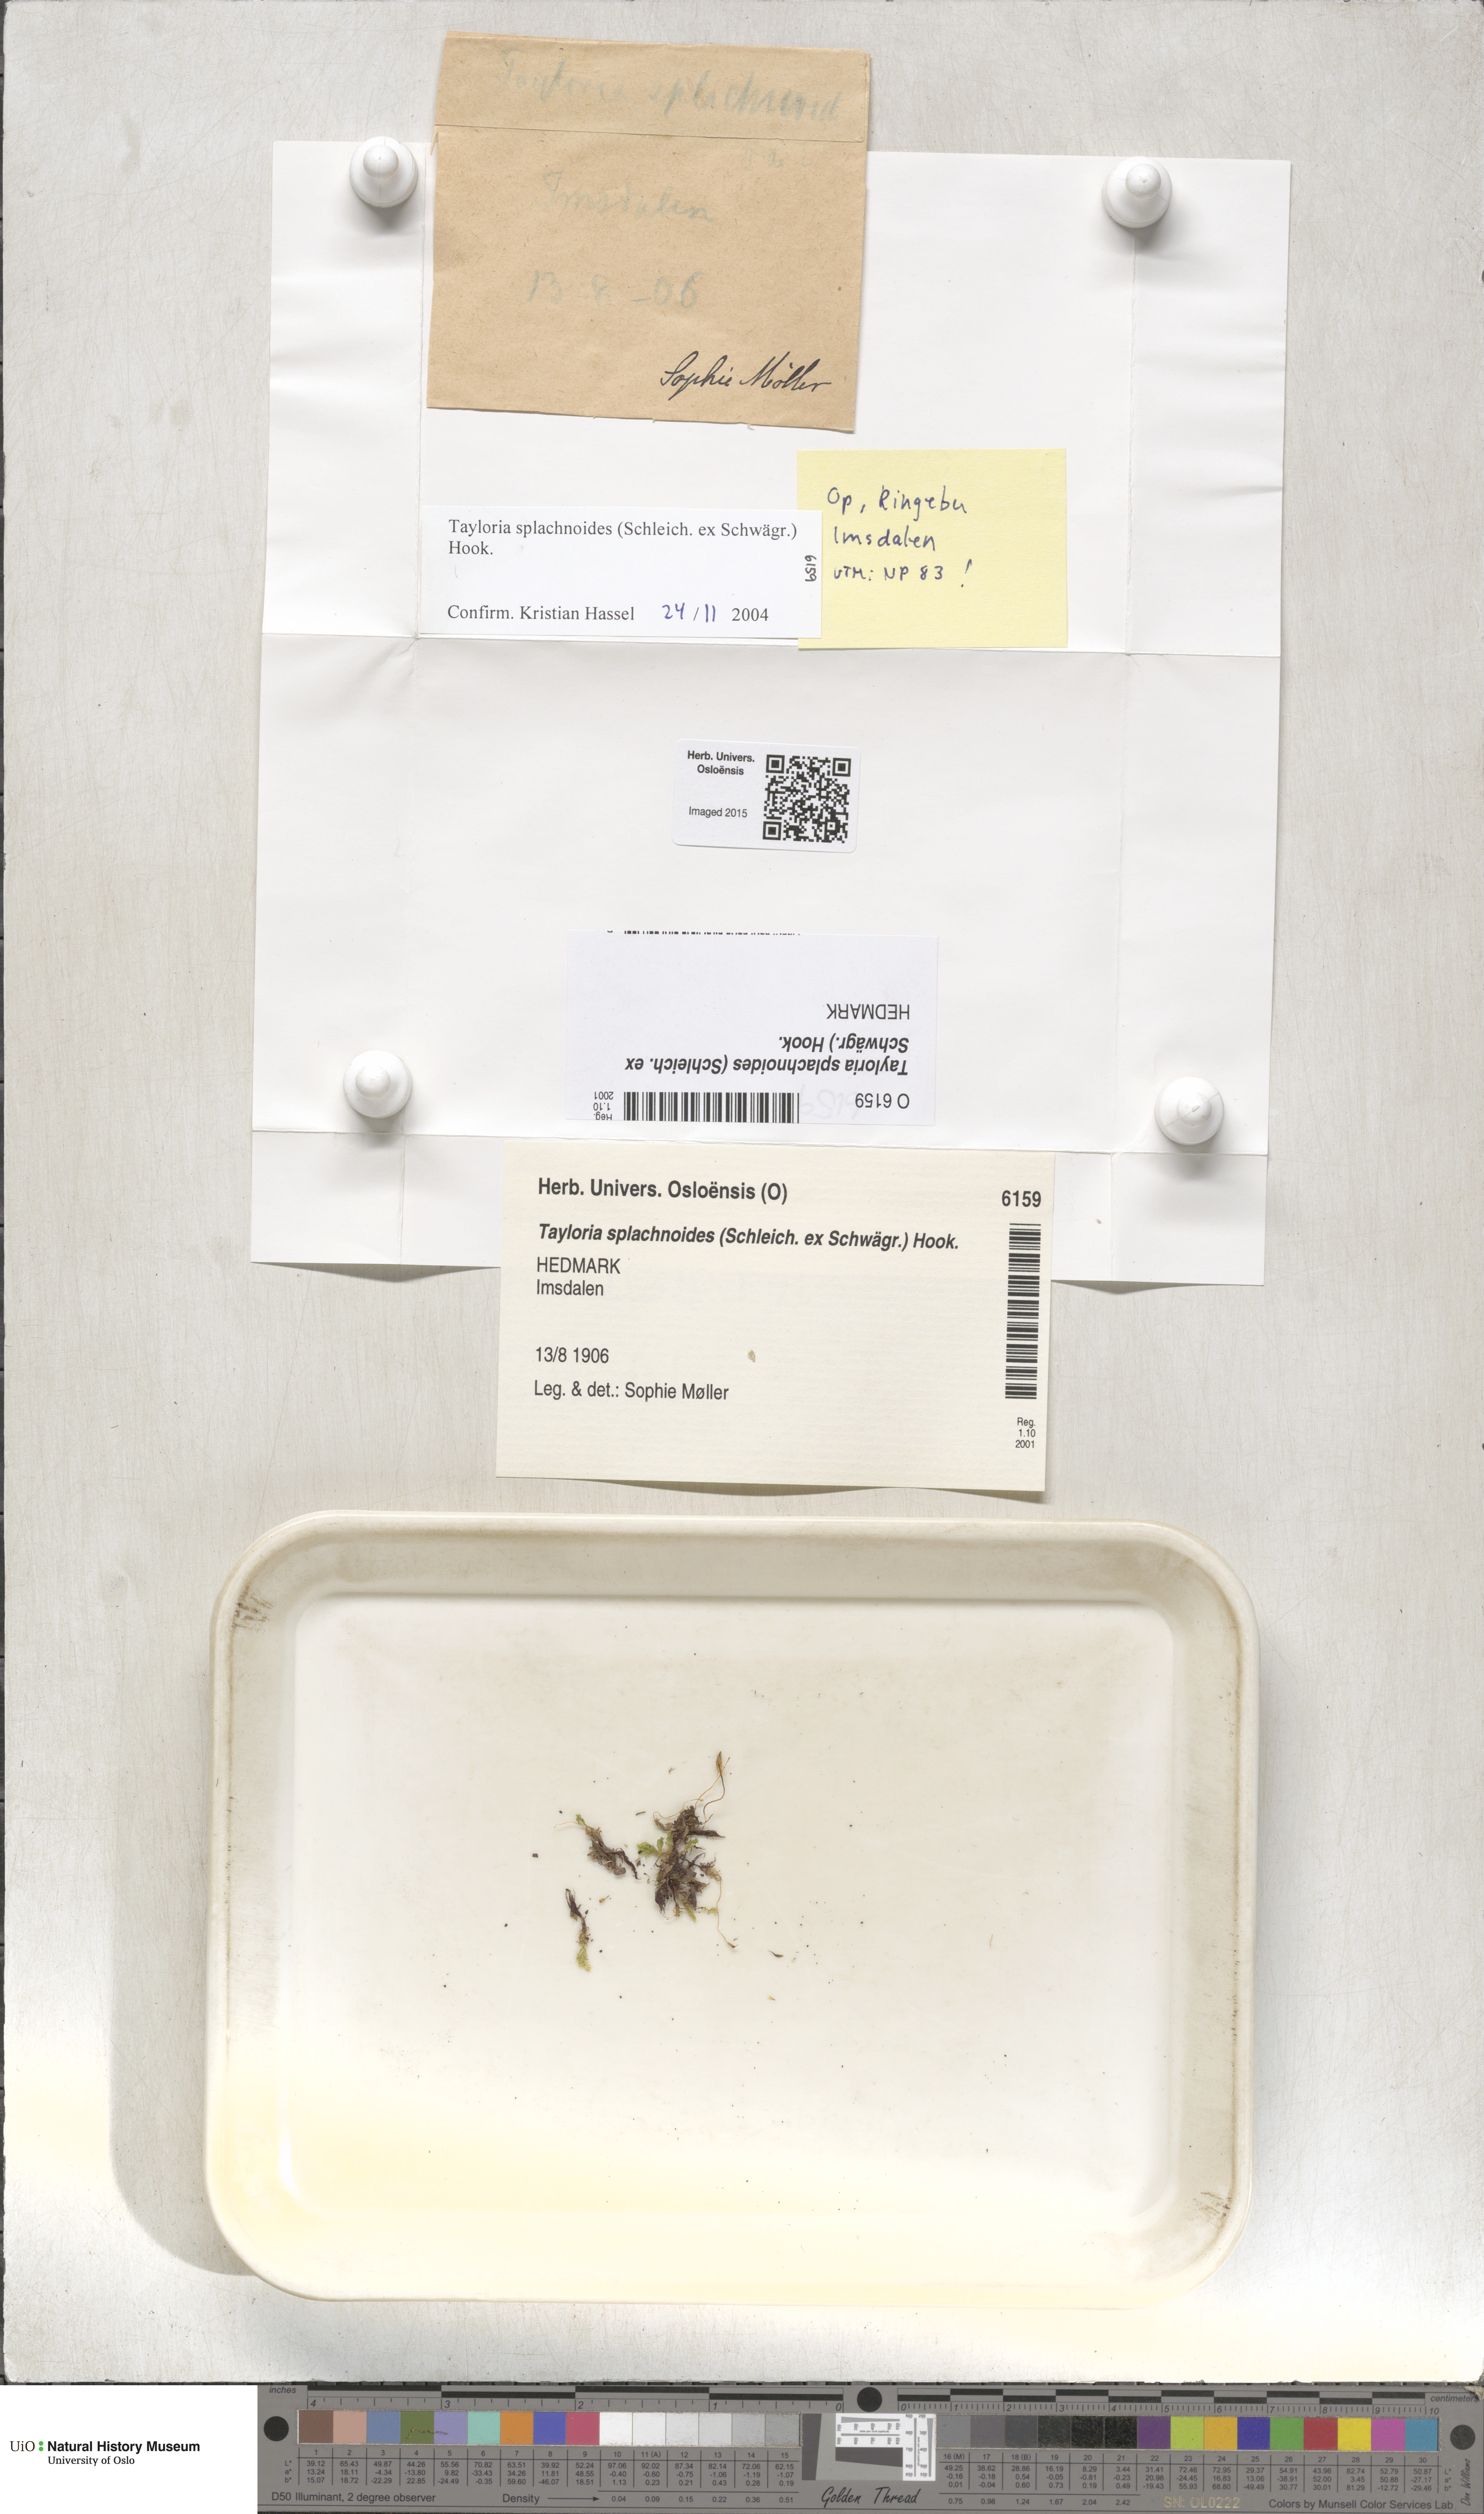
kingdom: Plantae
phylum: Bryophyta
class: Bryopsida
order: Splachnales
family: Splachnaceae
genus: Tayloria
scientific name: Tayloria splachnoides
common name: Splachnoid trumpet moss
